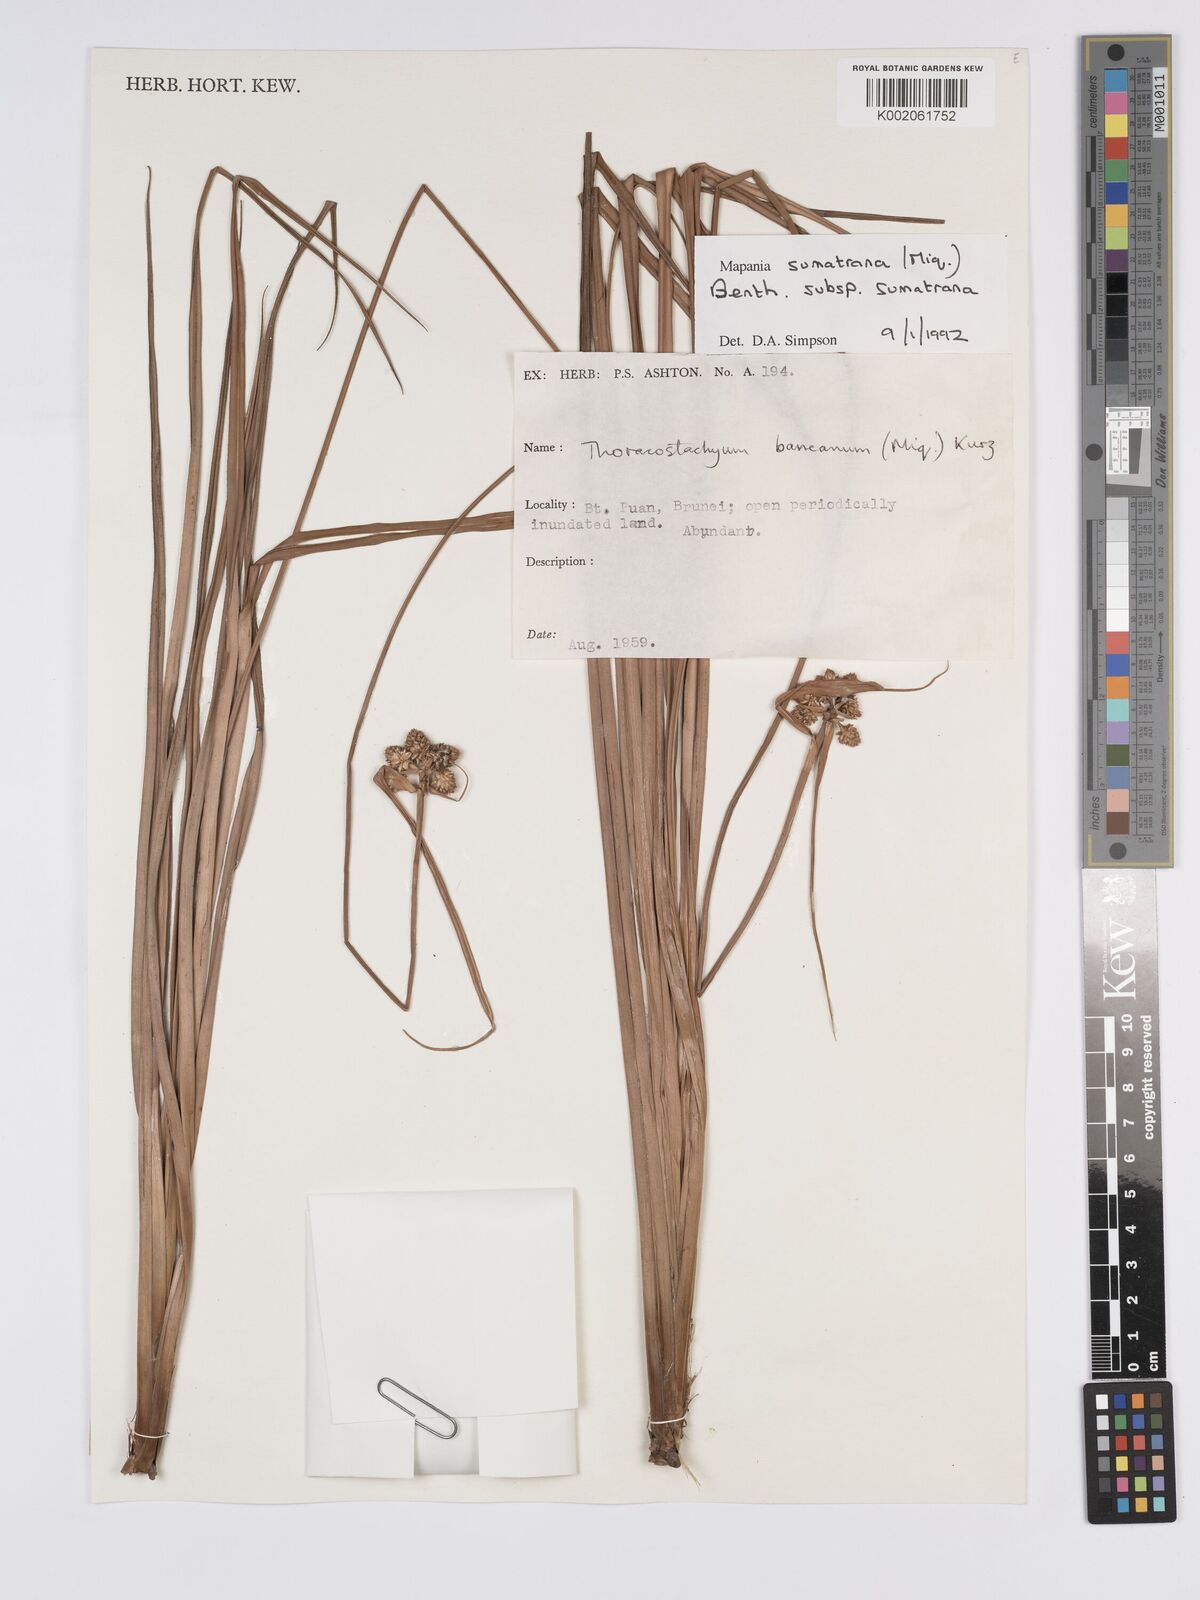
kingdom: Plantae
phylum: Tracheophyta
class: Liliopsida
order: Poales
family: Cyperaceae
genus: Mapania
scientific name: Mapania sumatrana
